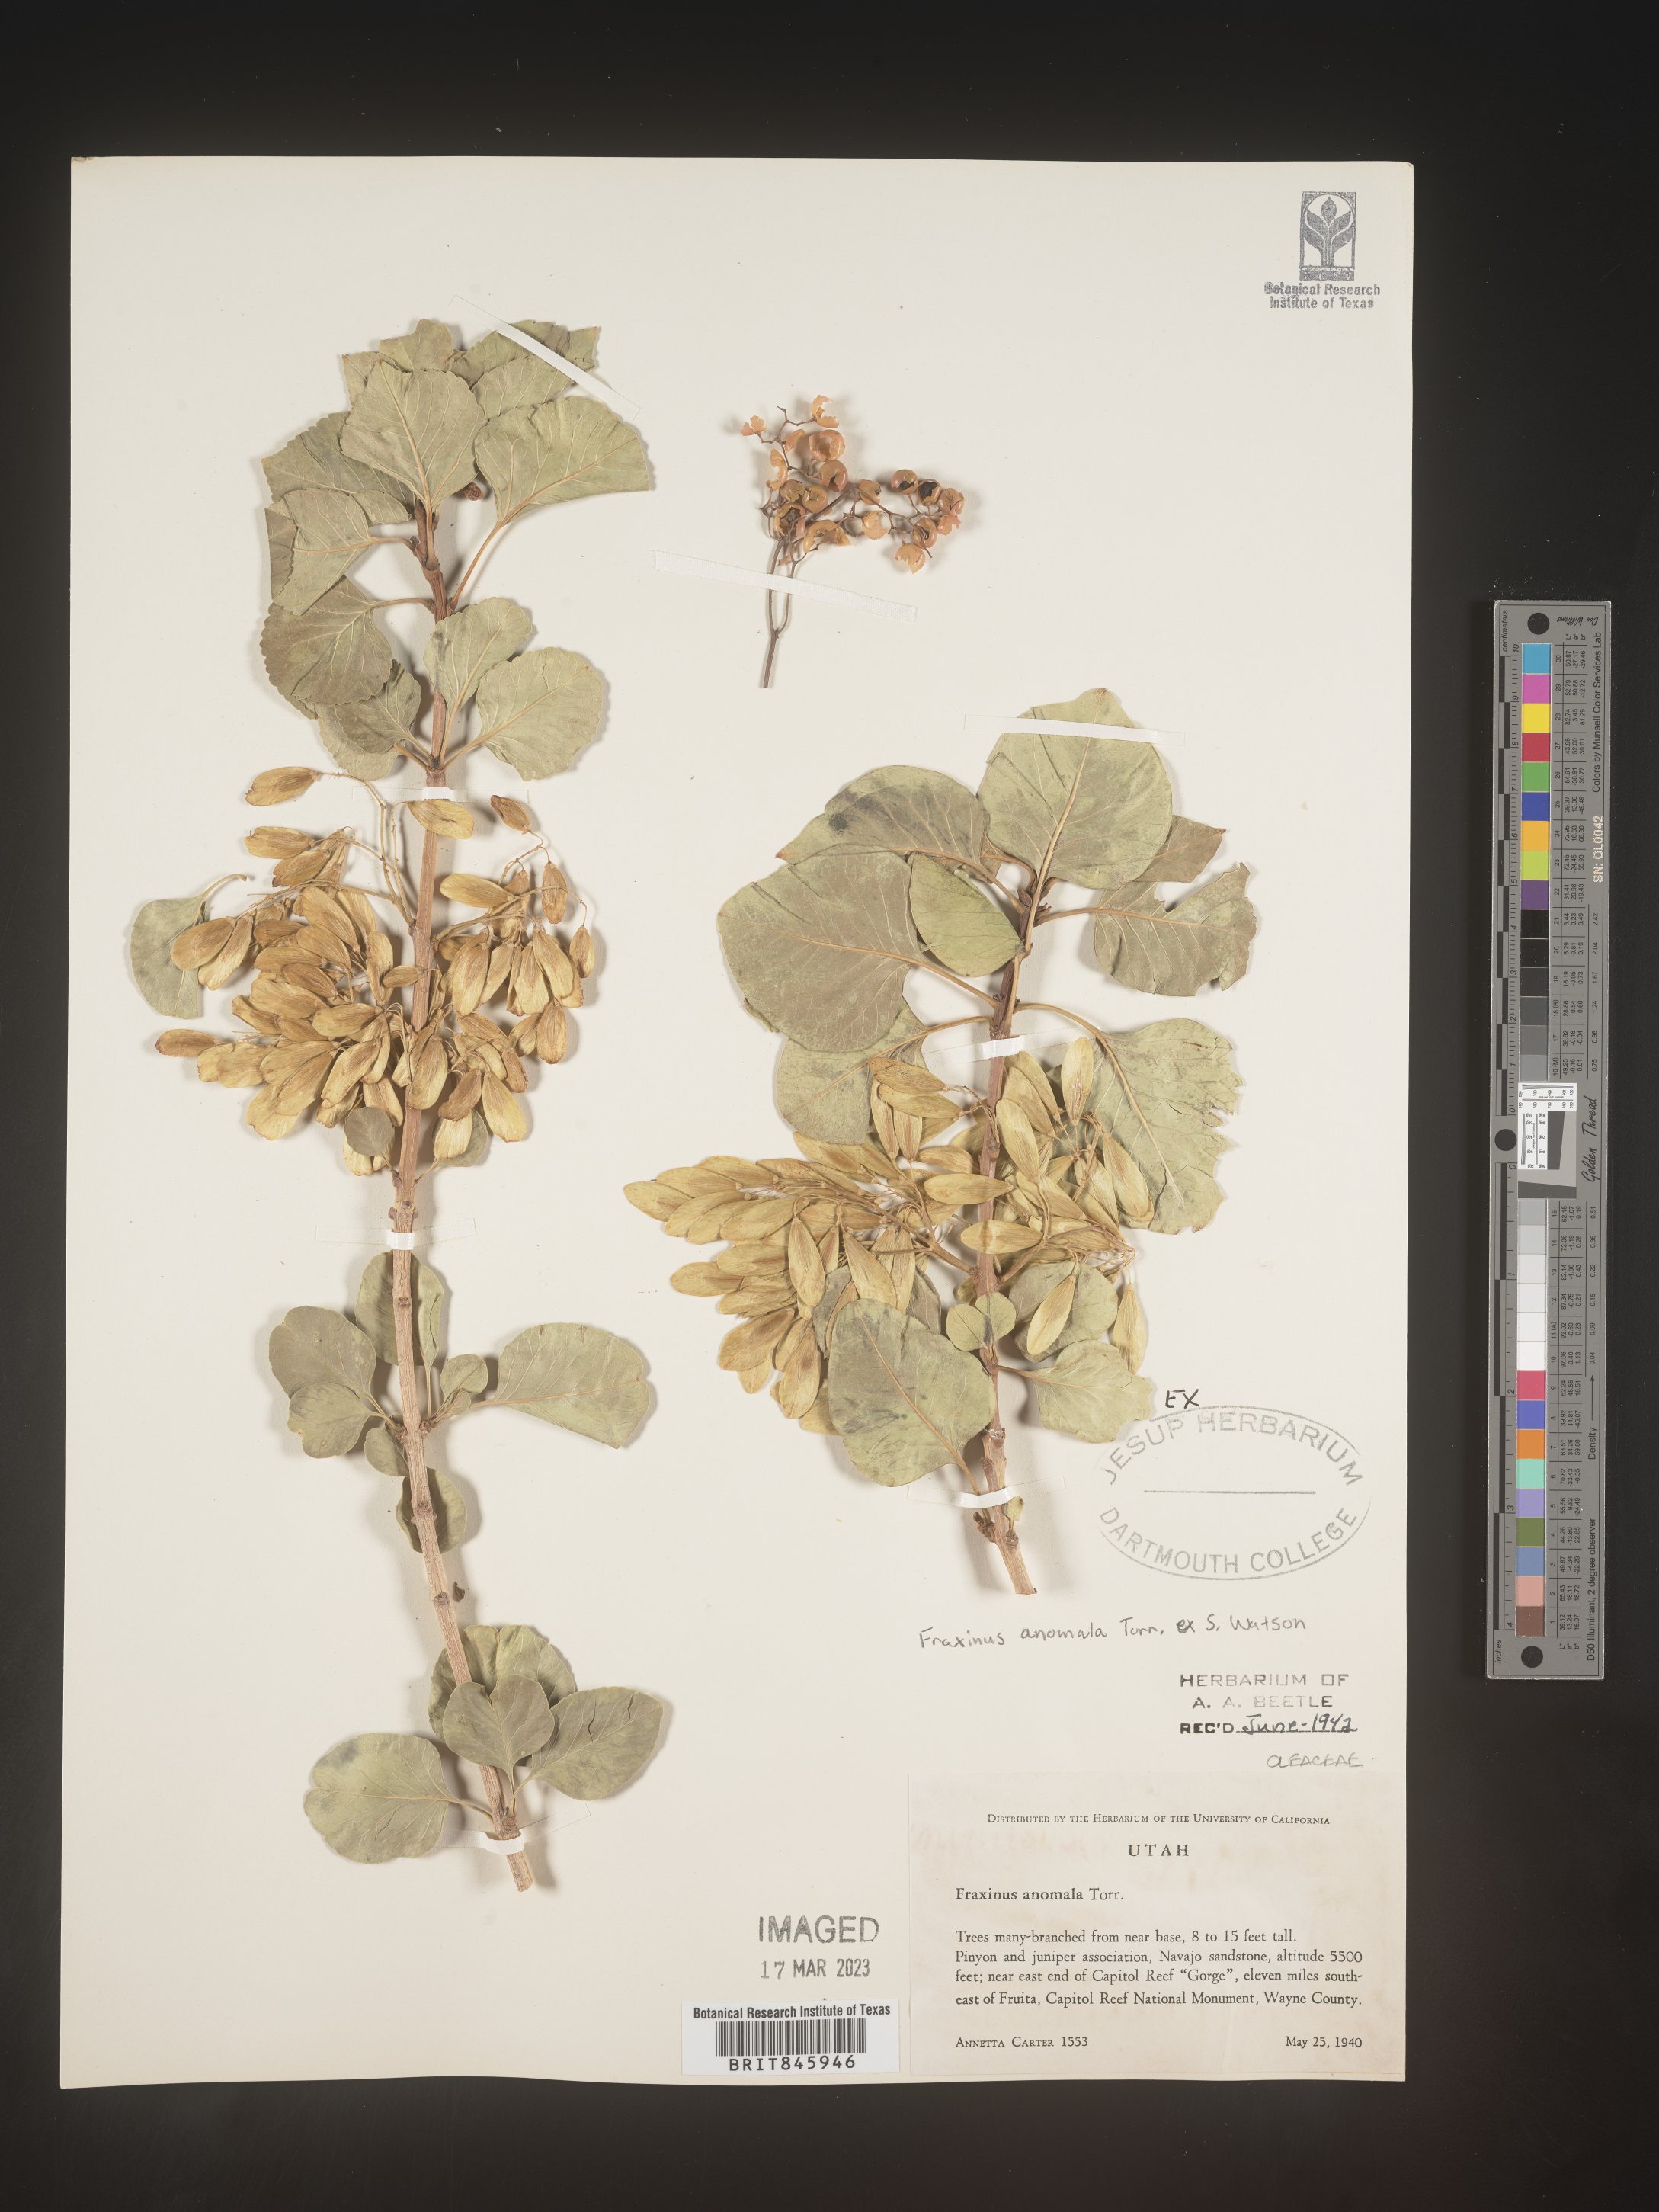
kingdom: Plantae
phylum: Tracheophyta
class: Magnoliopsida
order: Lamiales
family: Oleaceae
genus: Fraxinus
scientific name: Fraxinus anomala
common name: Utah ash
